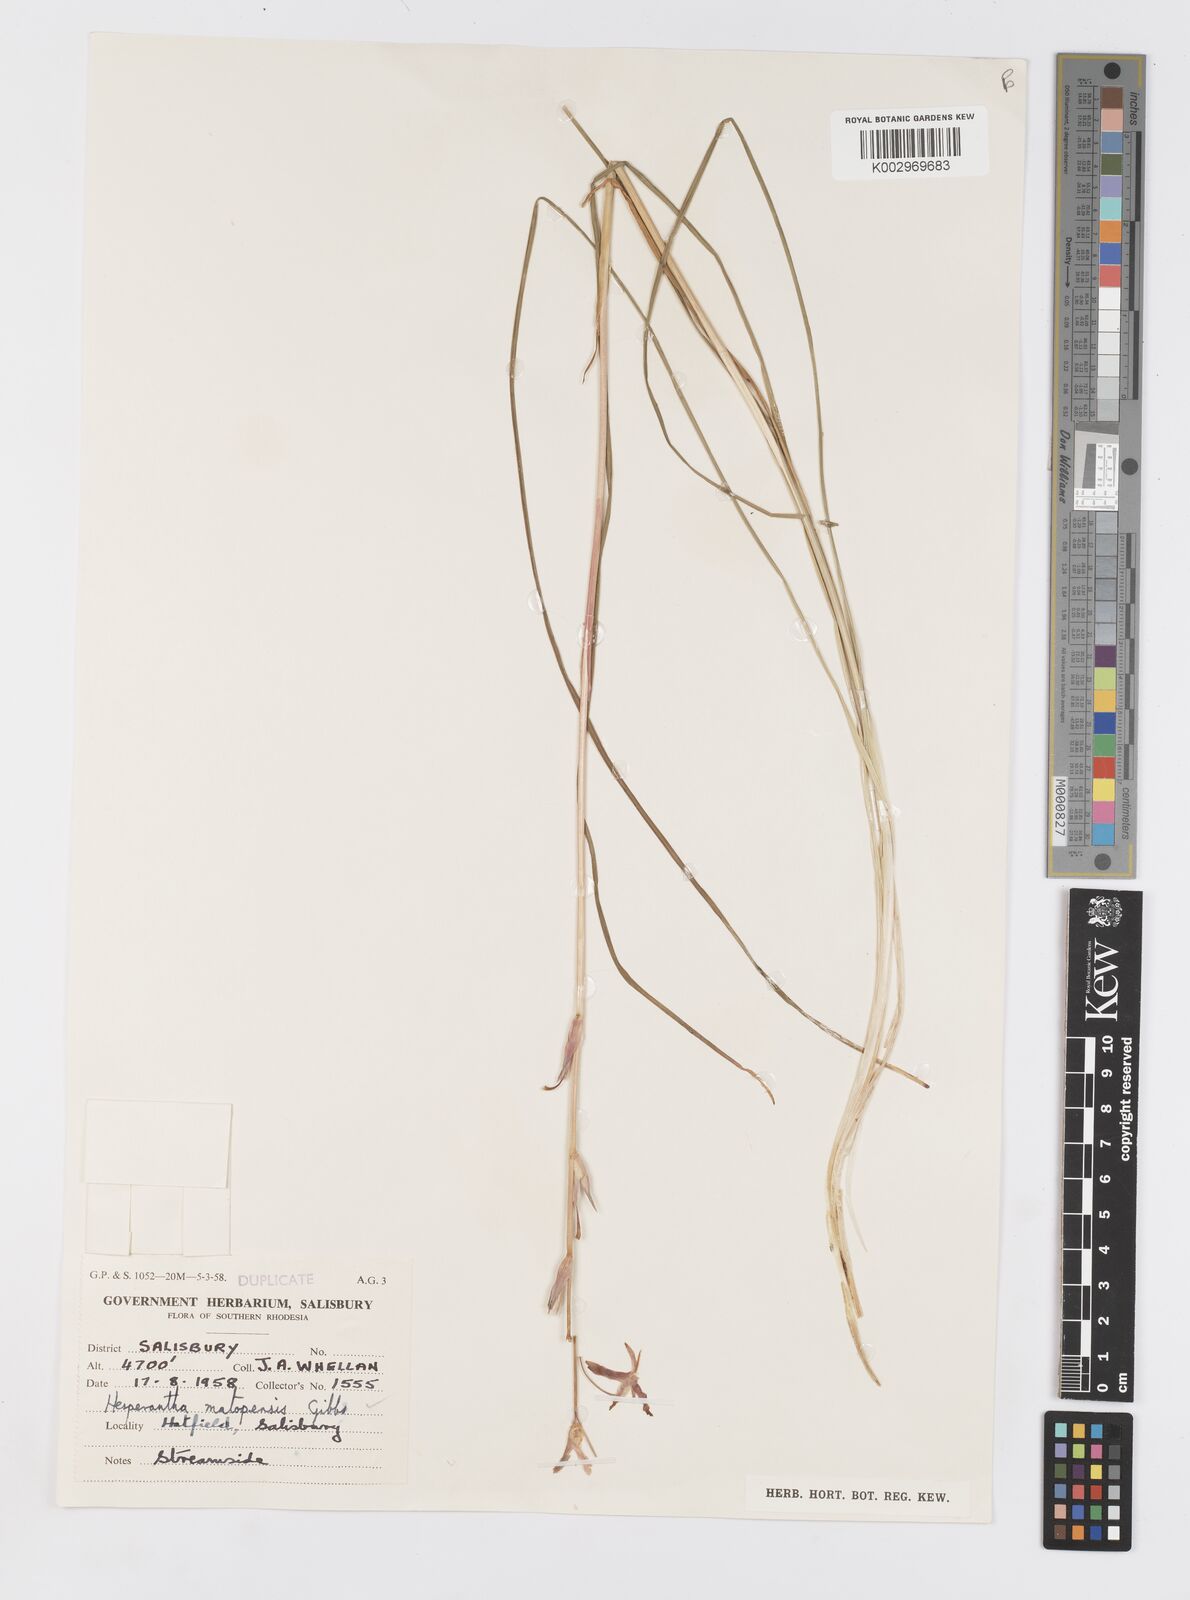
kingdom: Plantae
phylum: Tracheophyta
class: Liliopsida
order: Asparagales
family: Iridaceae
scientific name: Iridaceae
